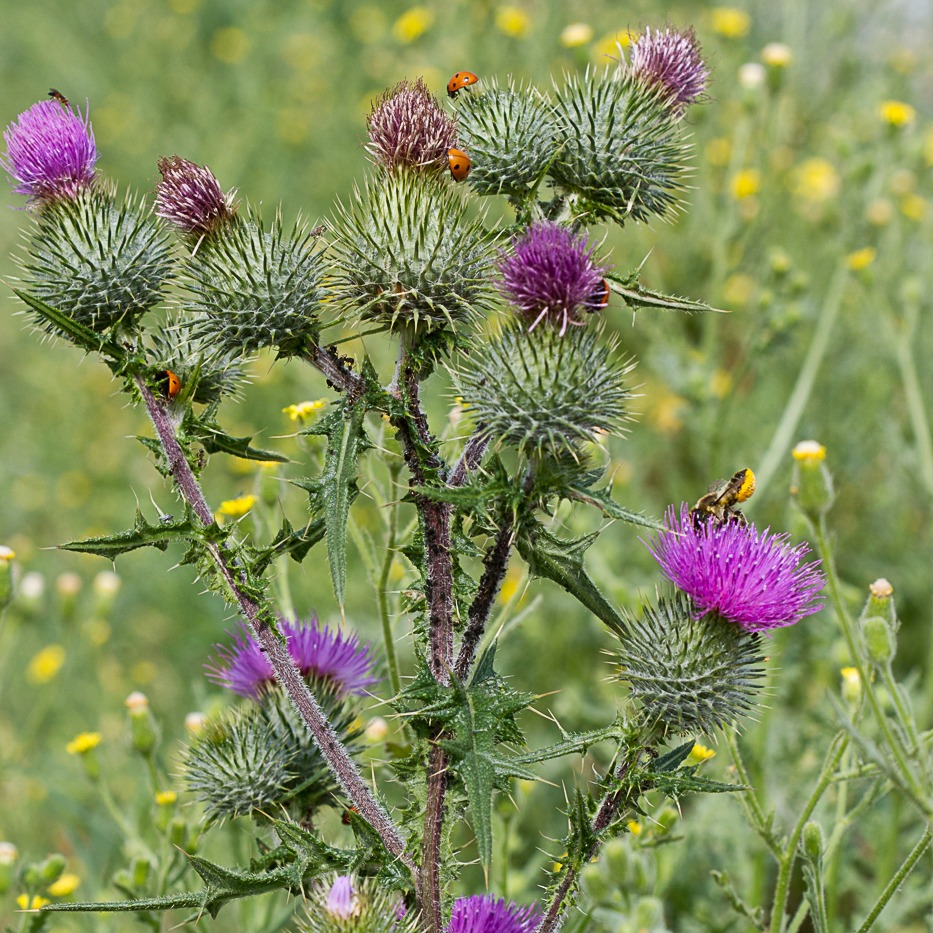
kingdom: Plantae
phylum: Tracheophyta
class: Magnoliopsida
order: Asterales
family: Asteraceae
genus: Cirsium
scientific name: Cirsium vulgare
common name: Horse-tidsel
